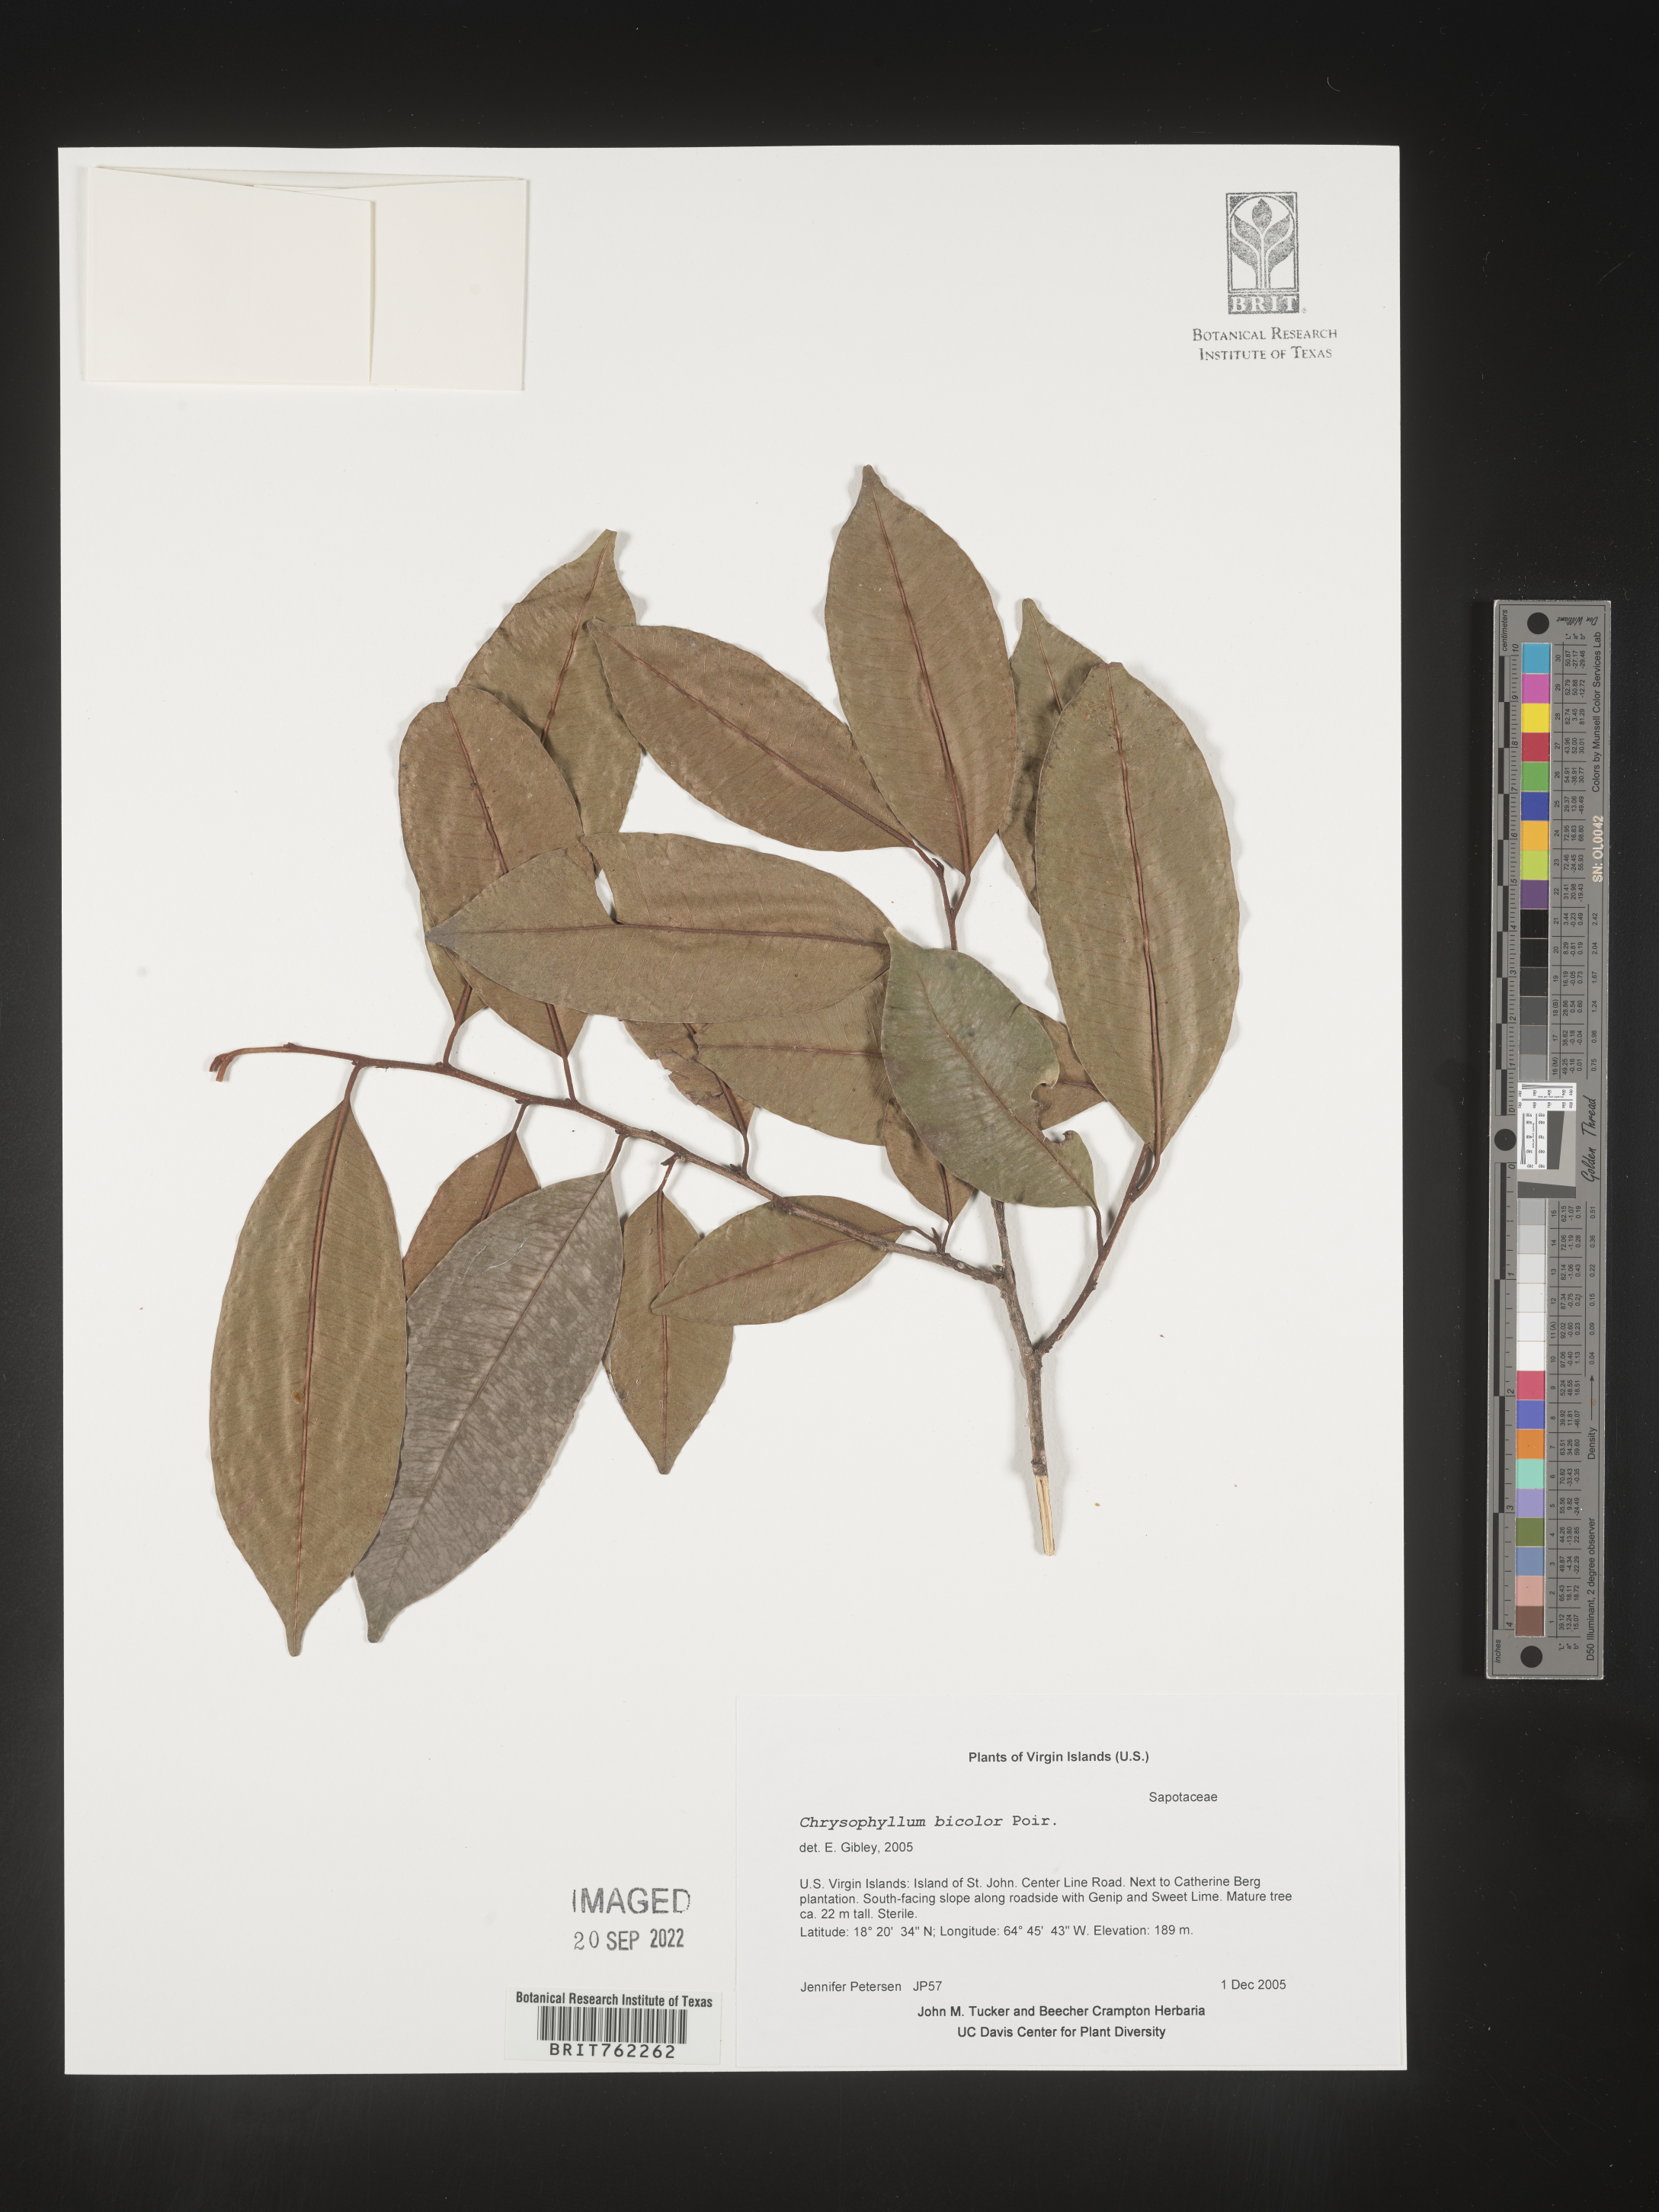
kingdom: Plantae
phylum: Tracheophyta
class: Magnoliopsida
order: Ericales
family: Sapotaceae
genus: Chrysophyllum
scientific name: Chrysophyllum
